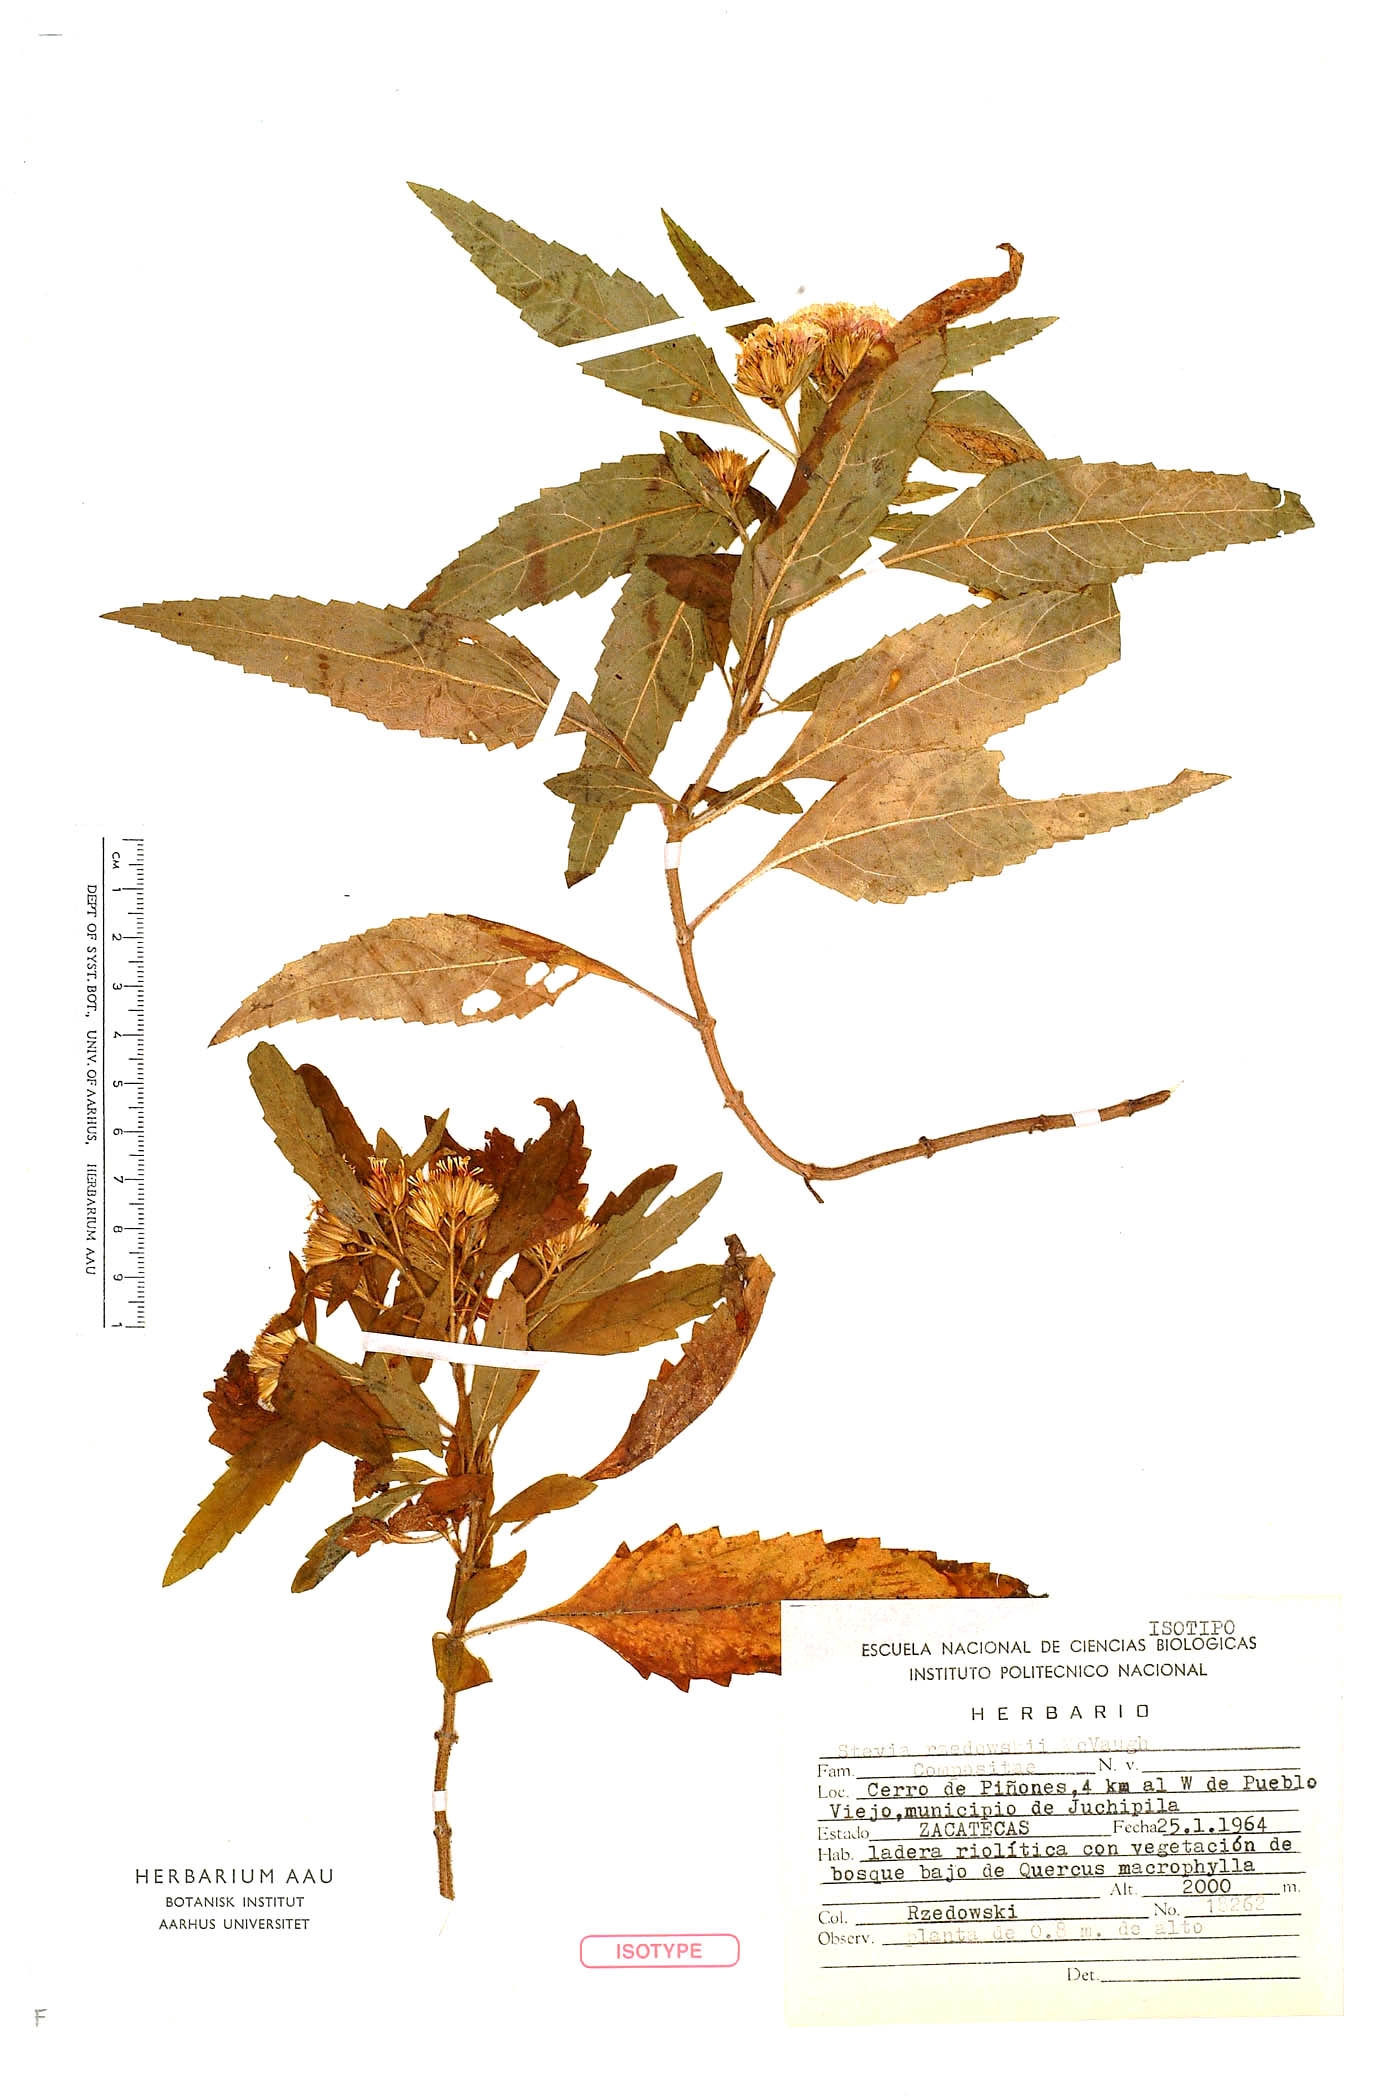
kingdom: Plantae
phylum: Tracheophyta
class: Magnoliopsida
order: Asterales
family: Asteraceae
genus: Stevia
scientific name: Stevia rzedowskii
